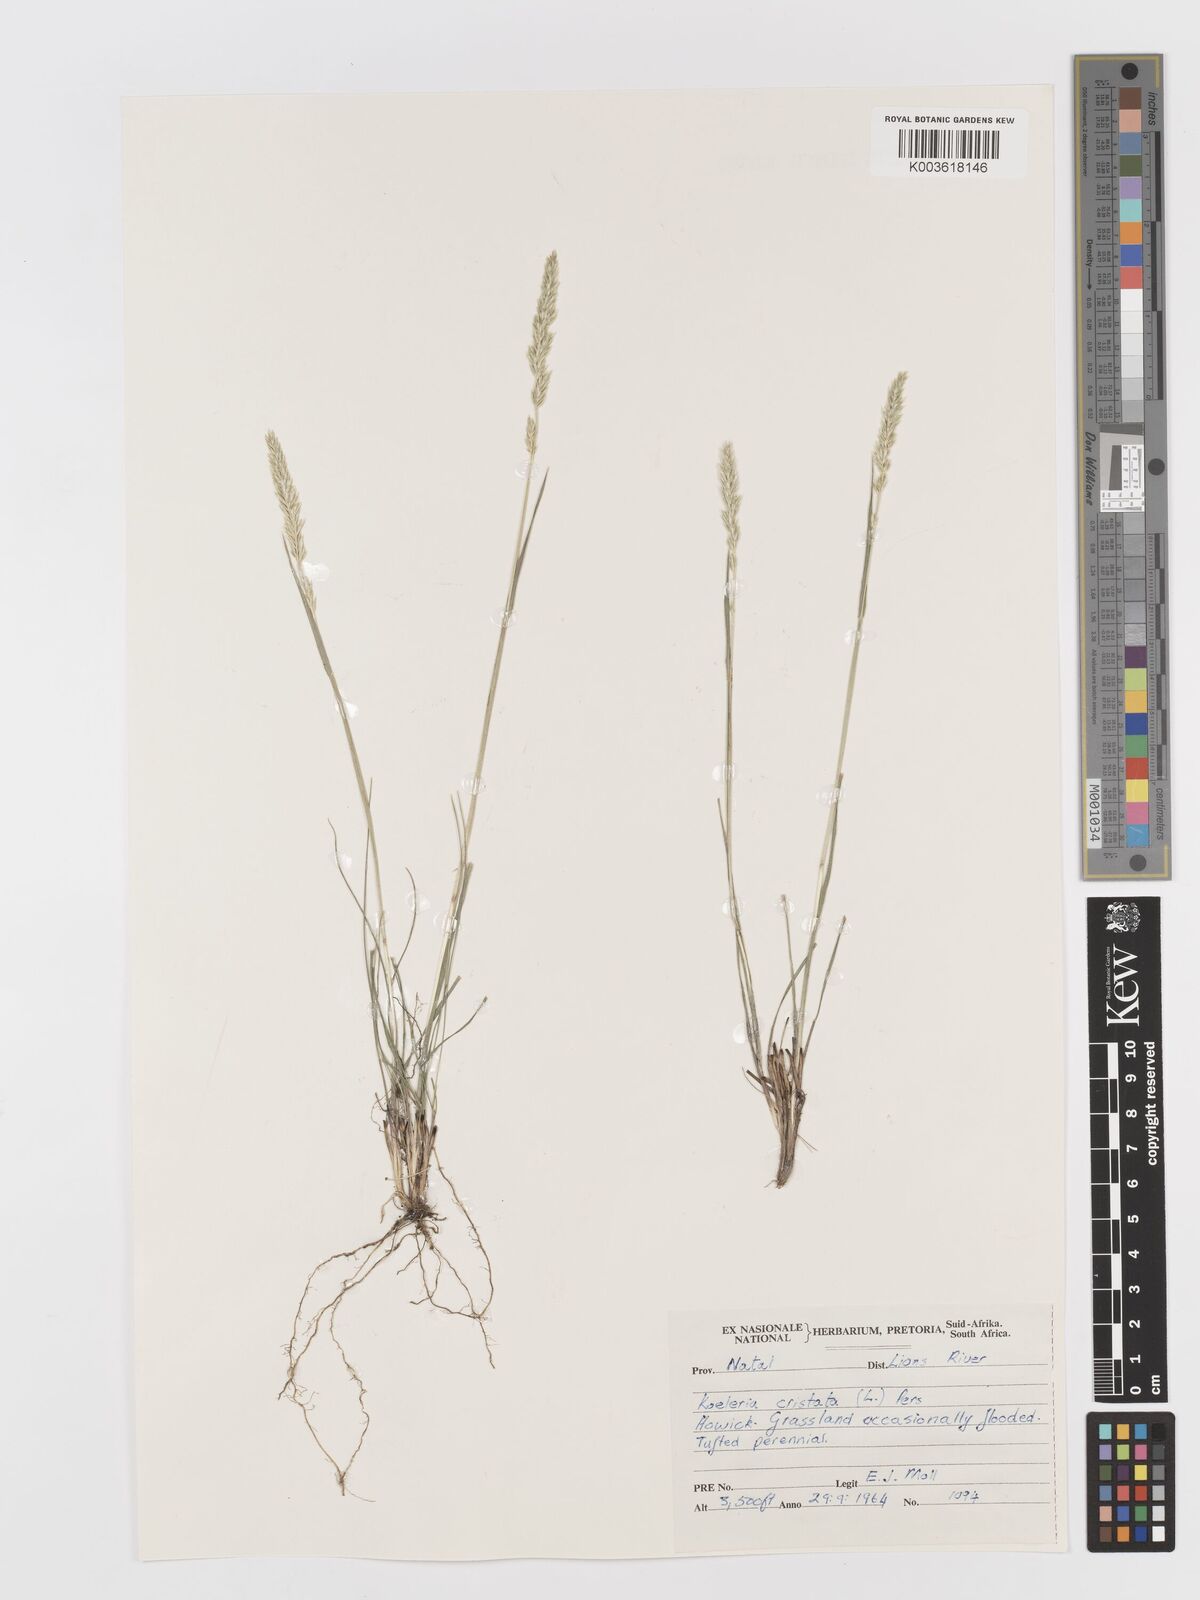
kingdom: Plantae
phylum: Tracheophyta
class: Liliopsida
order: Poales
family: Poaceae
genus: Koeleria
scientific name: Koeleria capensis
